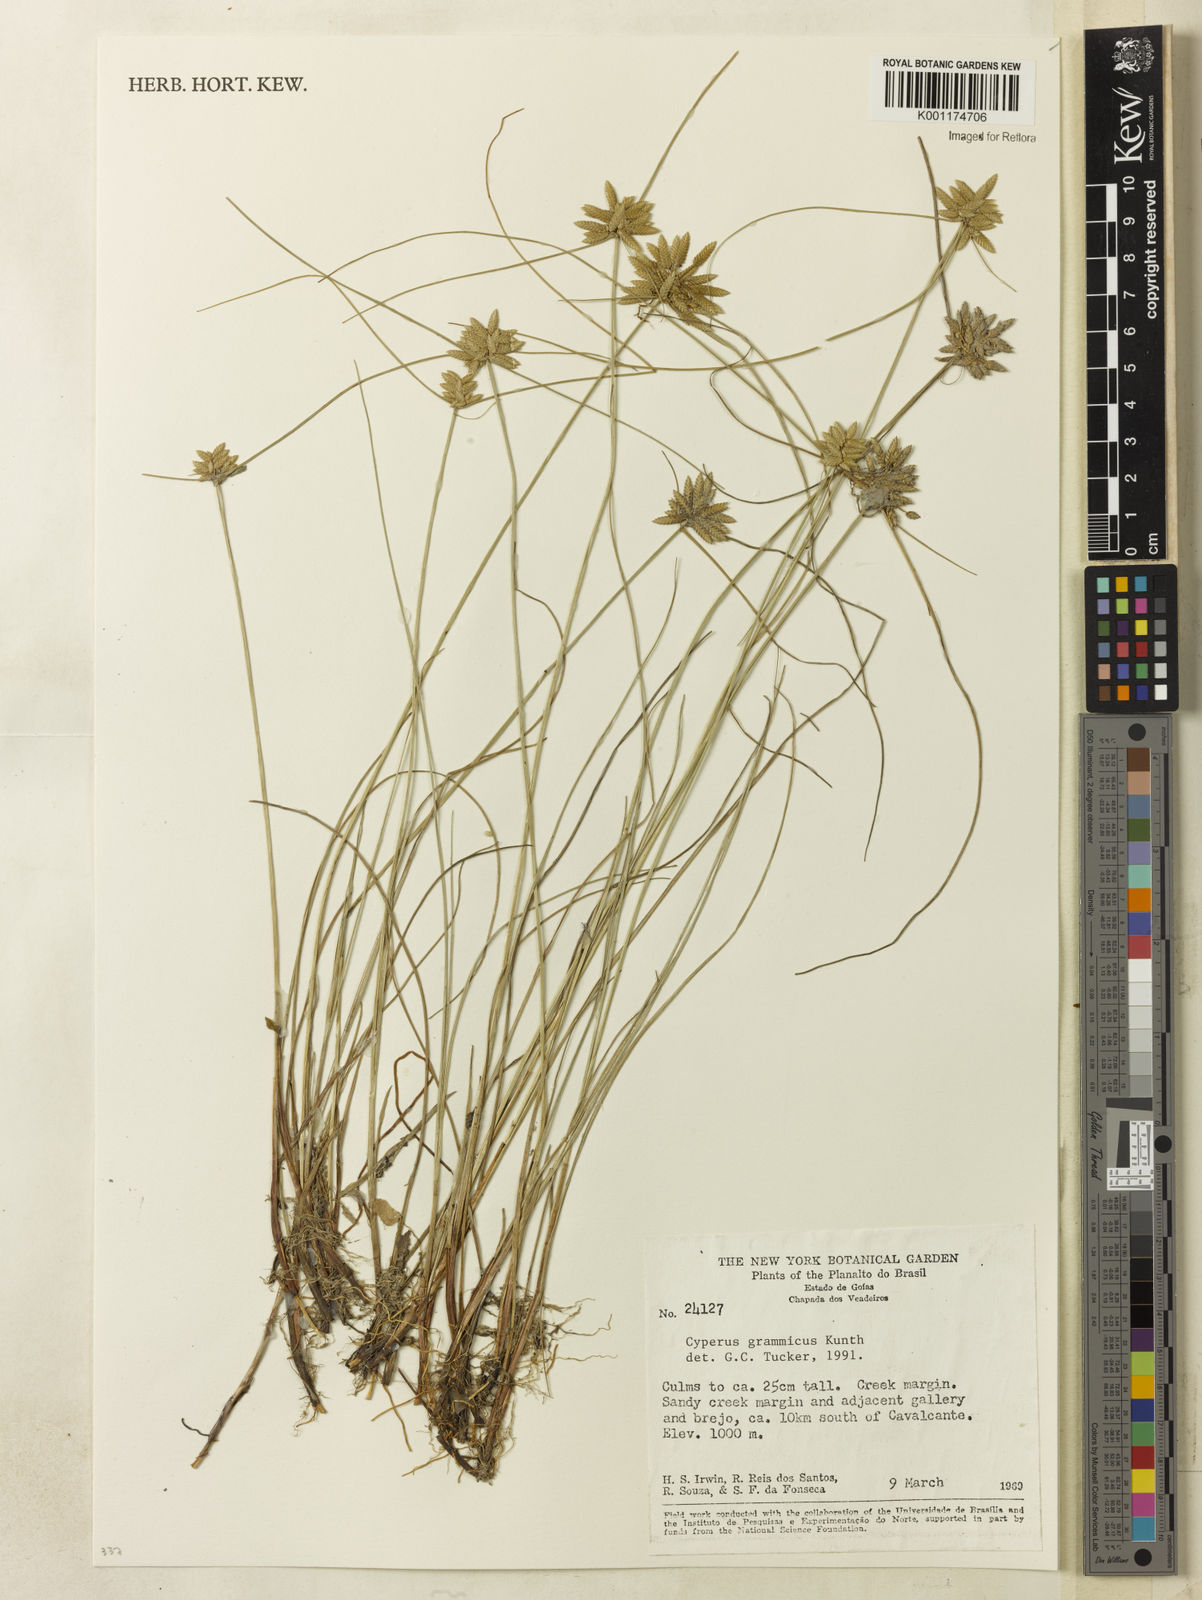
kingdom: Plantae
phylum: Tracheophyta
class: Liliopsida
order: Poales
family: Cyperaceae
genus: Cyperus
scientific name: Cyperus lanceolatus
